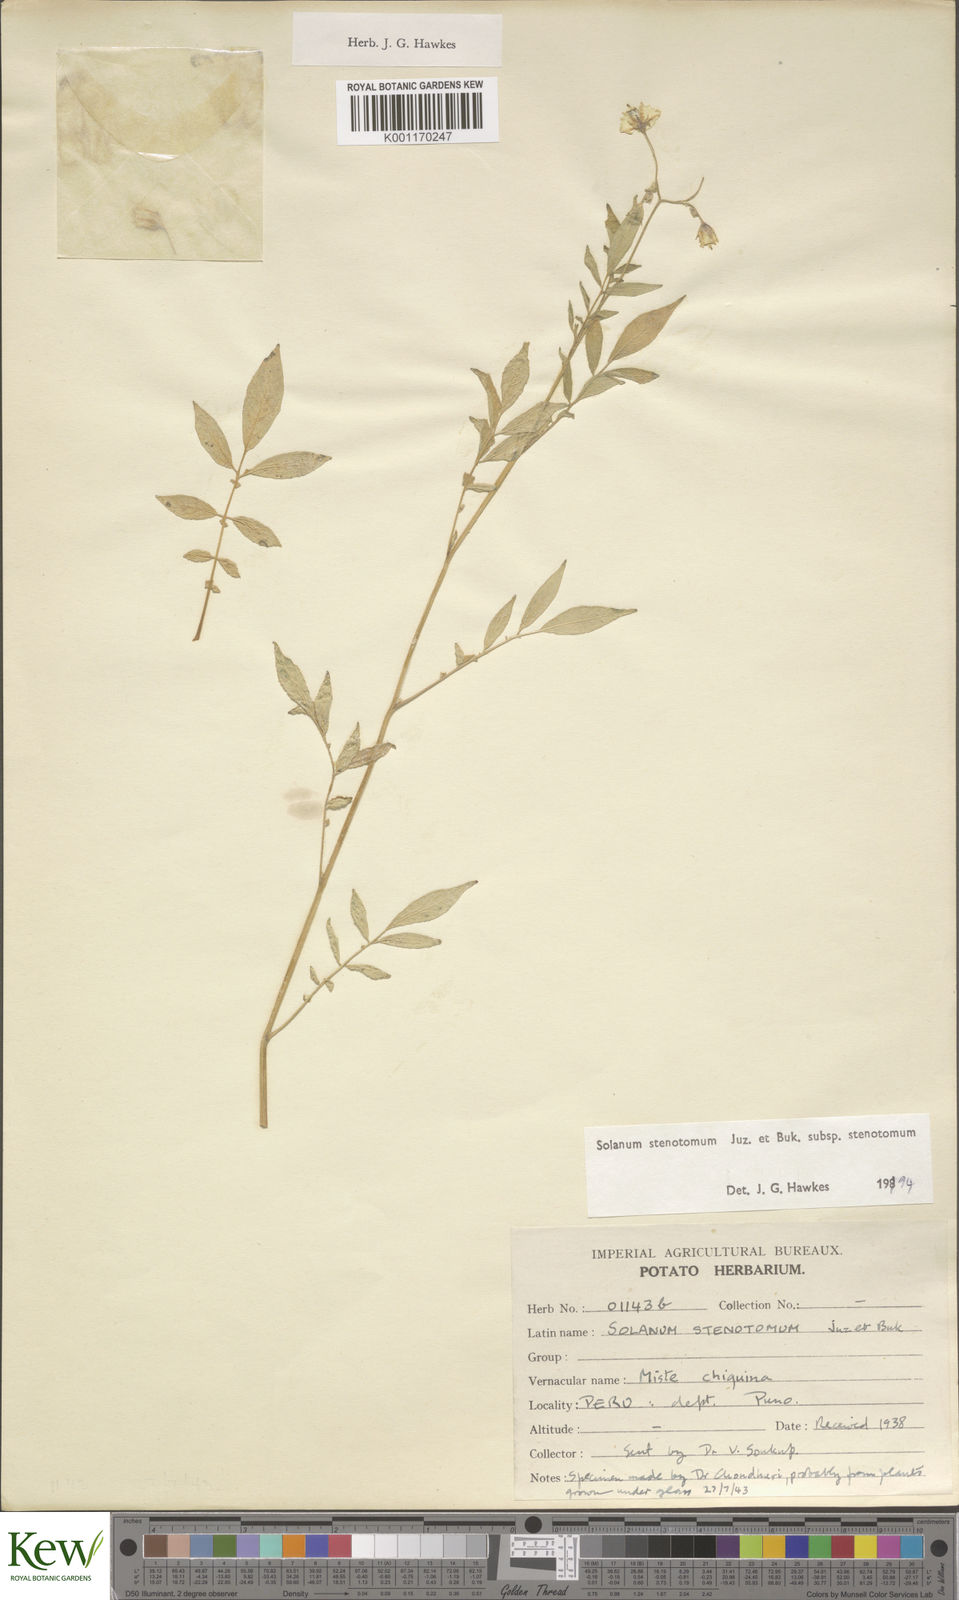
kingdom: Plantae
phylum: Tracheophyta
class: Magnoliopsida
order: Solanales
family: Solanaceae
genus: Solanum
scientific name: Solanum tuberosum
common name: Potato
